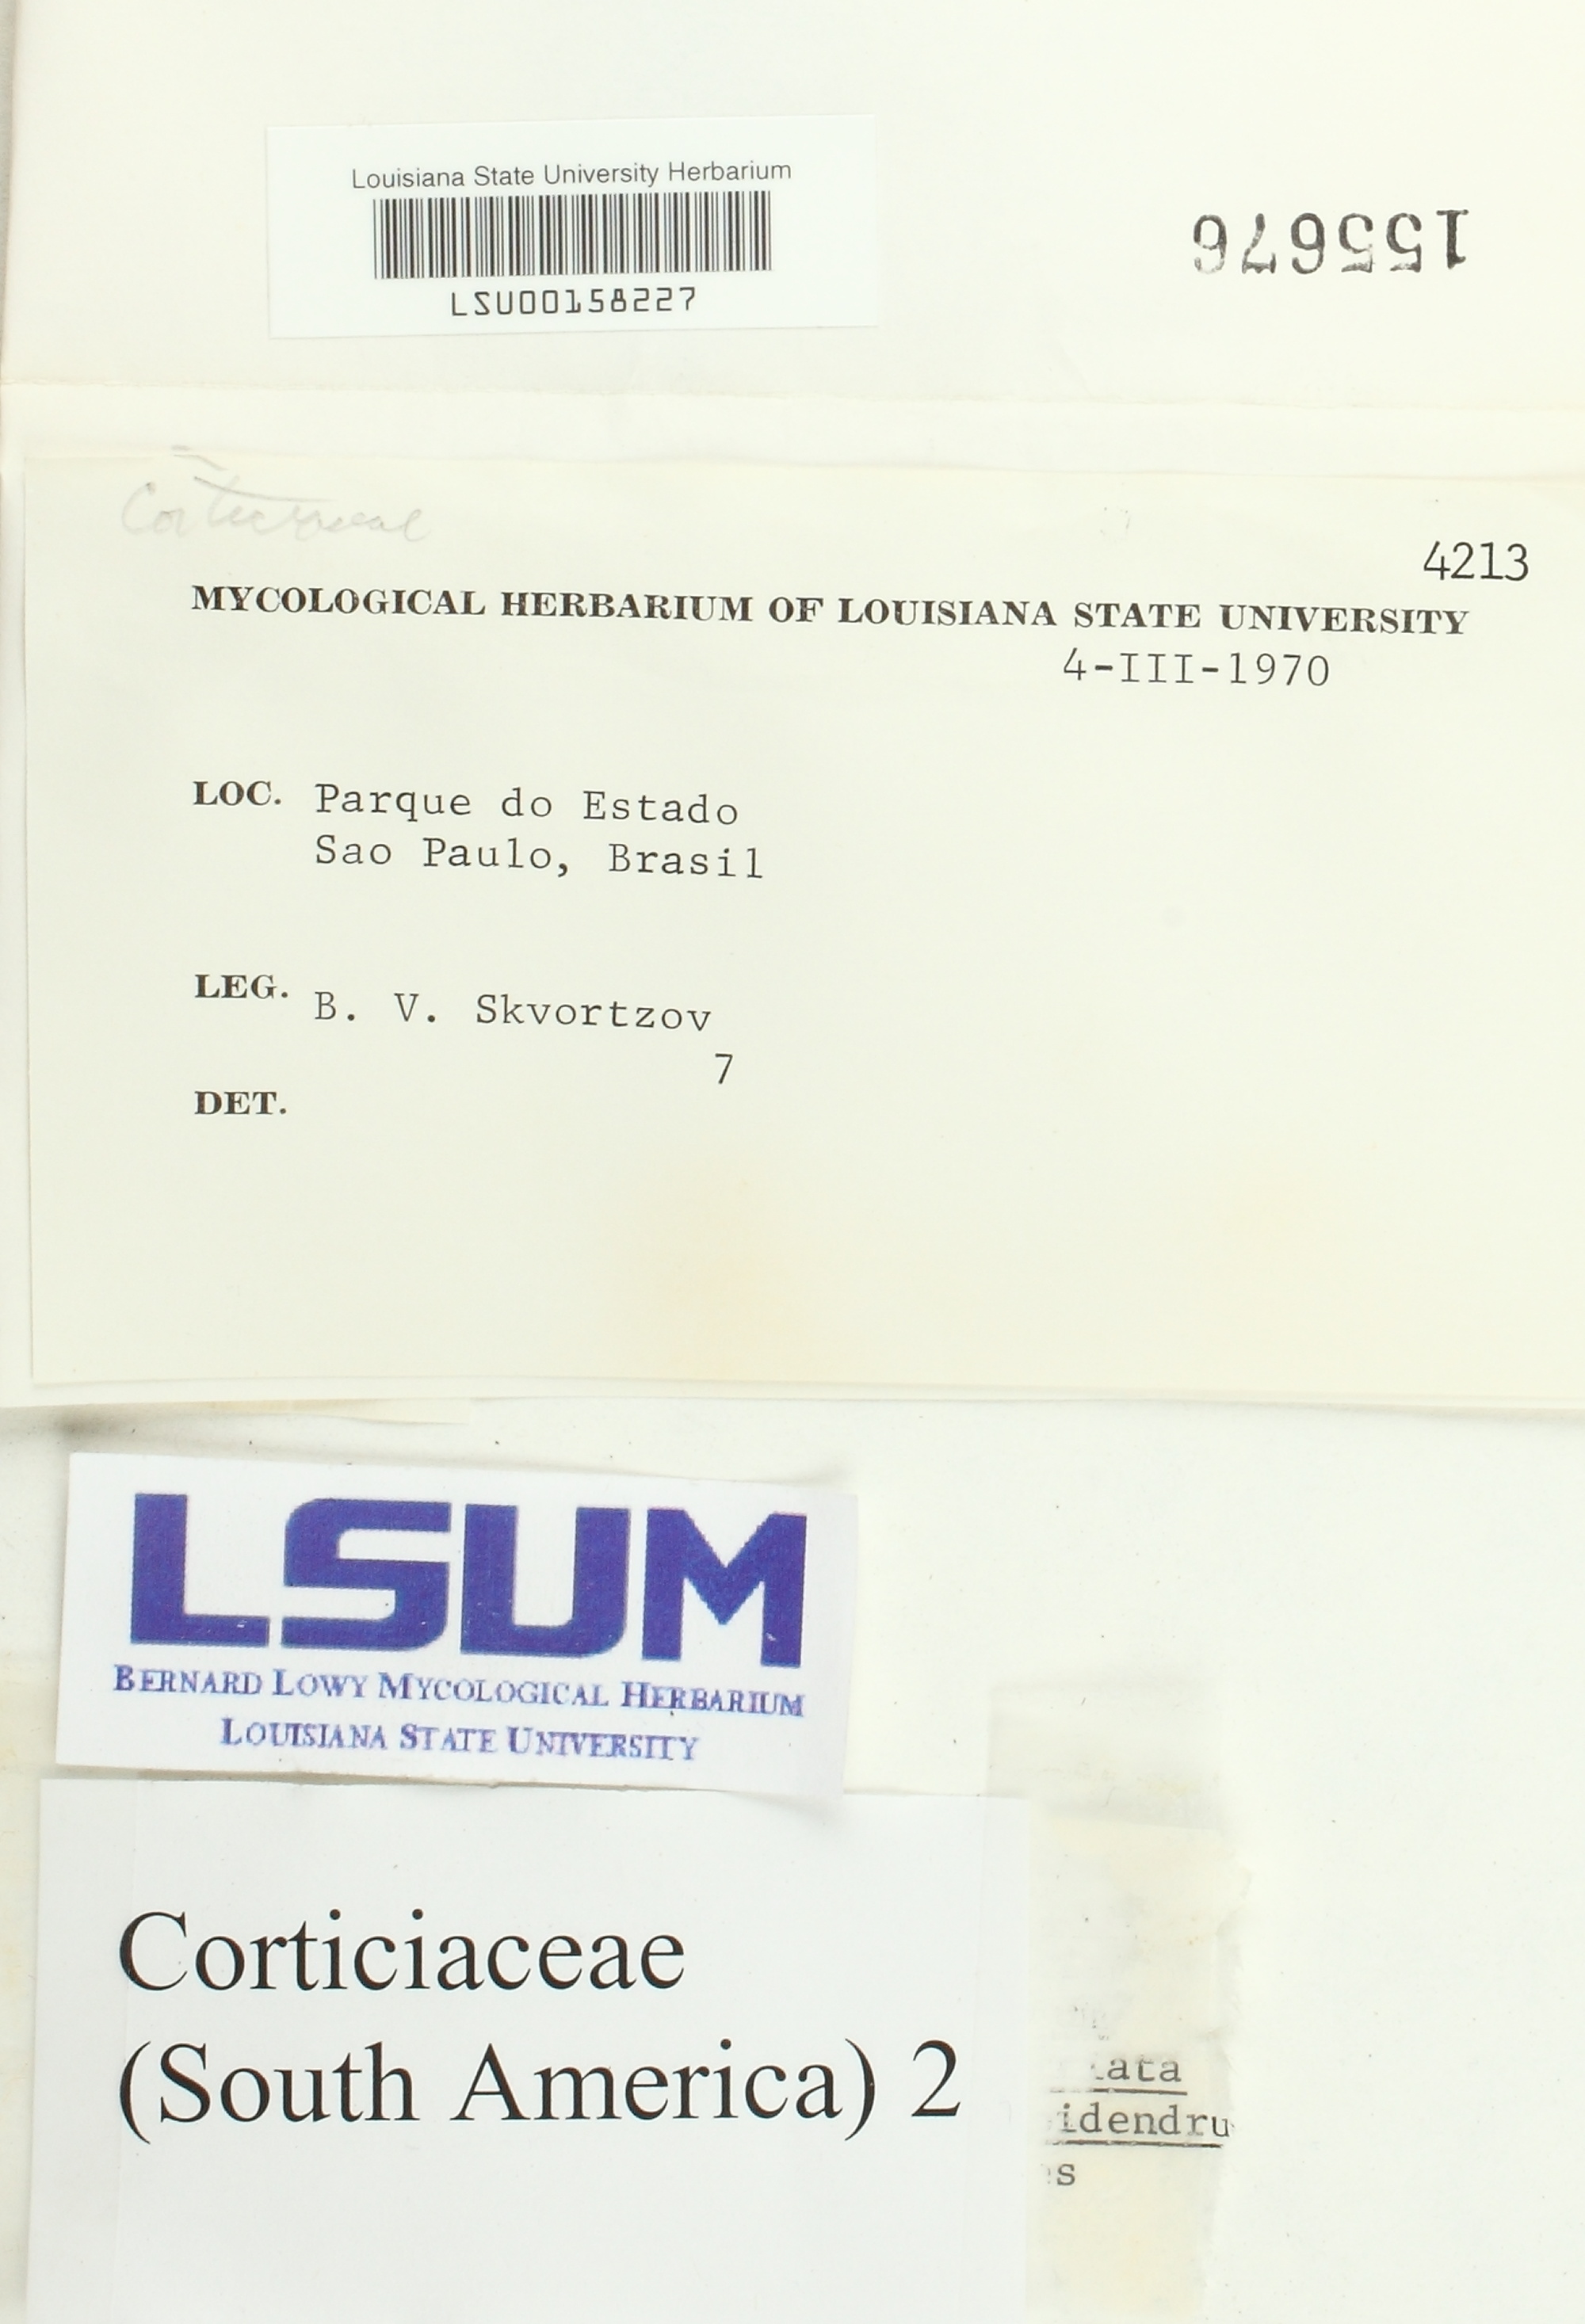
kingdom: Fungi
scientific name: Fungi
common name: Fungi
